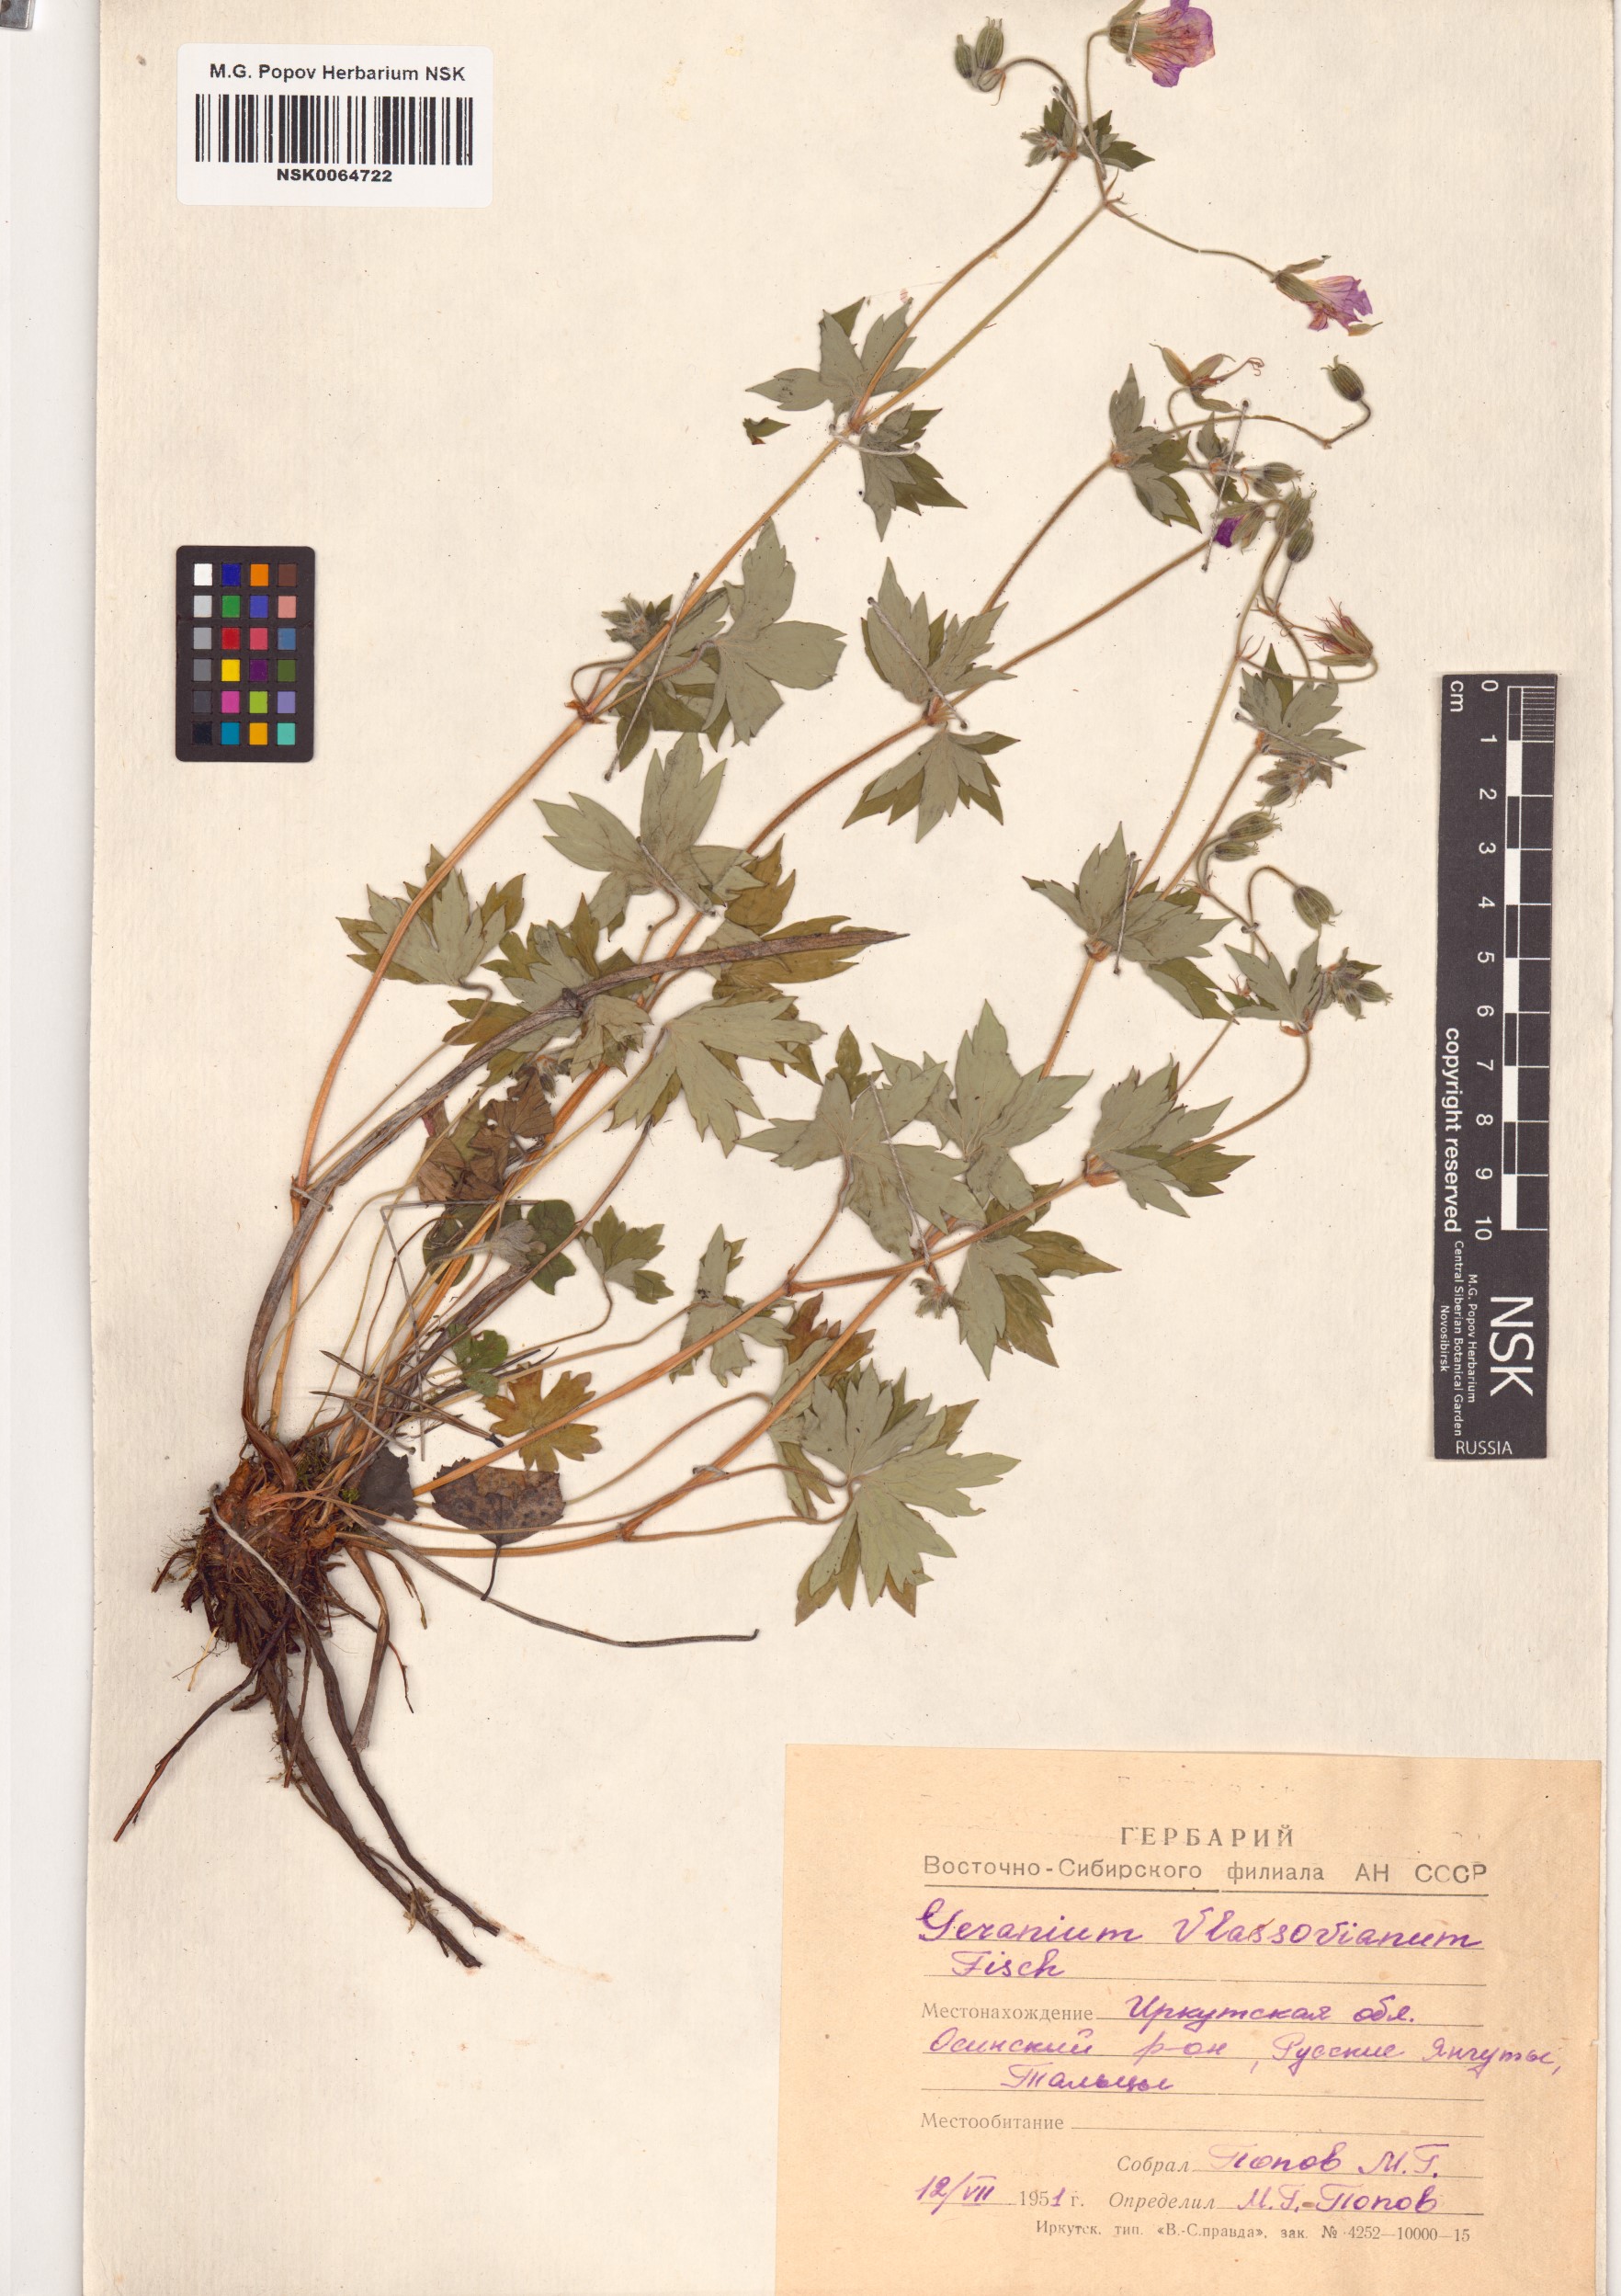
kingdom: Plantae
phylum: Tracheophyta
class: Magnoliopsida
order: Geraniales
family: Geraniaceae
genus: Geranium
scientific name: Geranium wlassovianum
